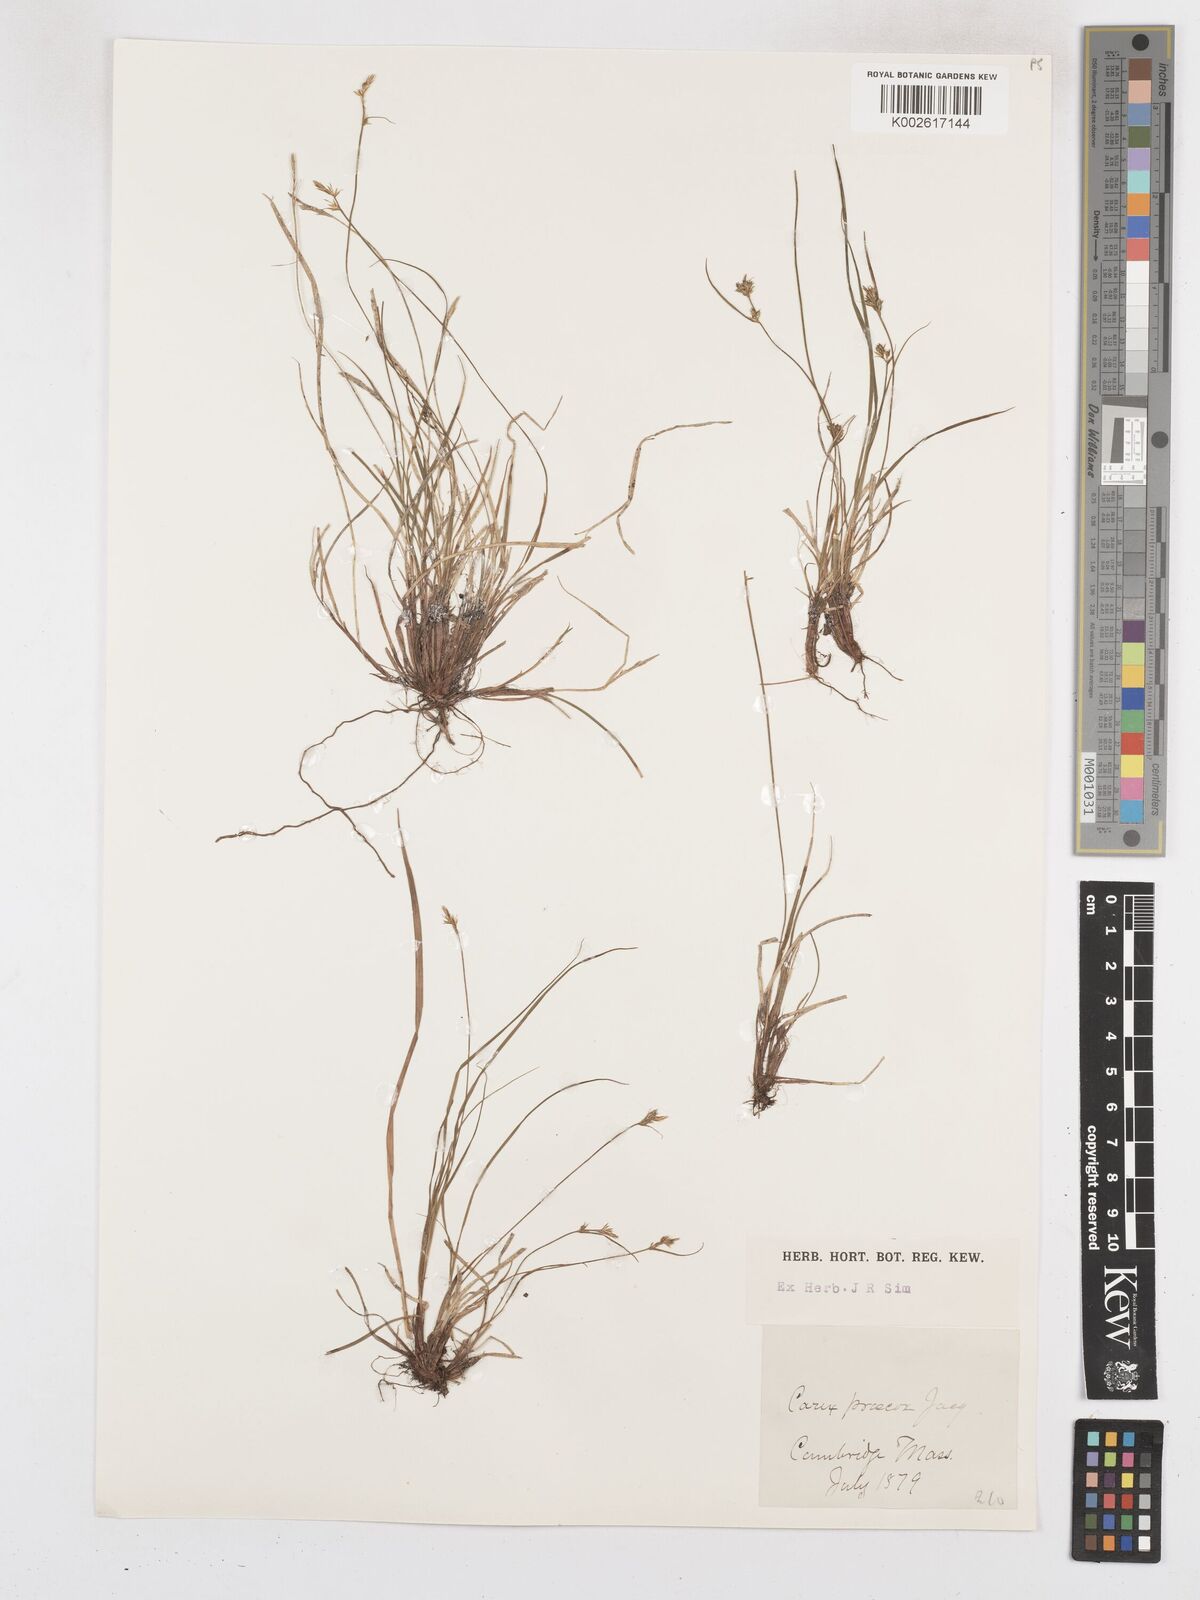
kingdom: Plantae
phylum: Tracheophyta
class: Liliopsida
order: Poales
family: Cyperaceae
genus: Carex
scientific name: Carex caryophyllea
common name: Spring sedge
